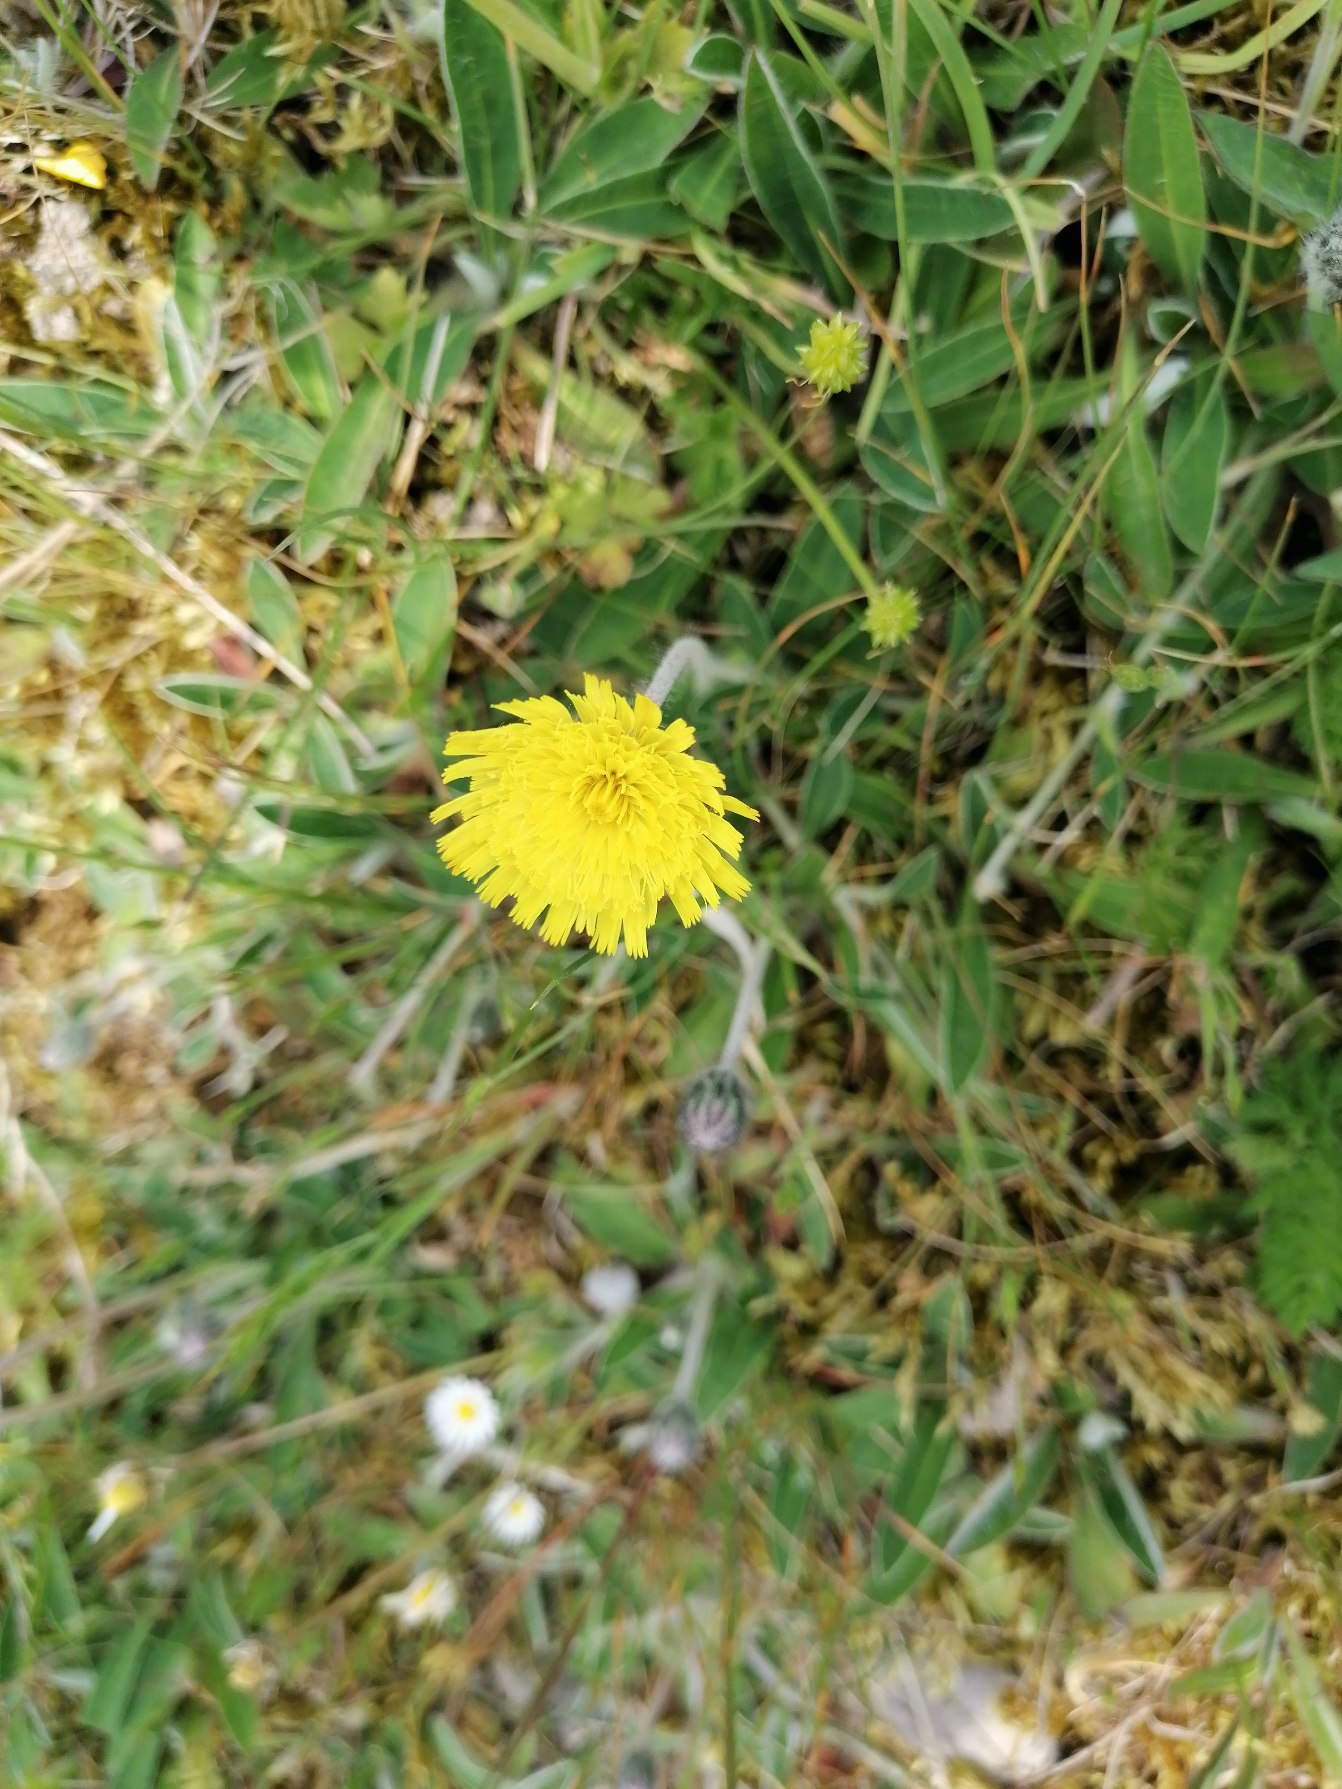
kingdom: Plantae
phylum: Tracheophyta
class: Magnoliopsida
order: Asterales
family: Asteraceae
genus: Pilosella
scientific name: Pilosella officinarum
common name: Håret høgeurt
